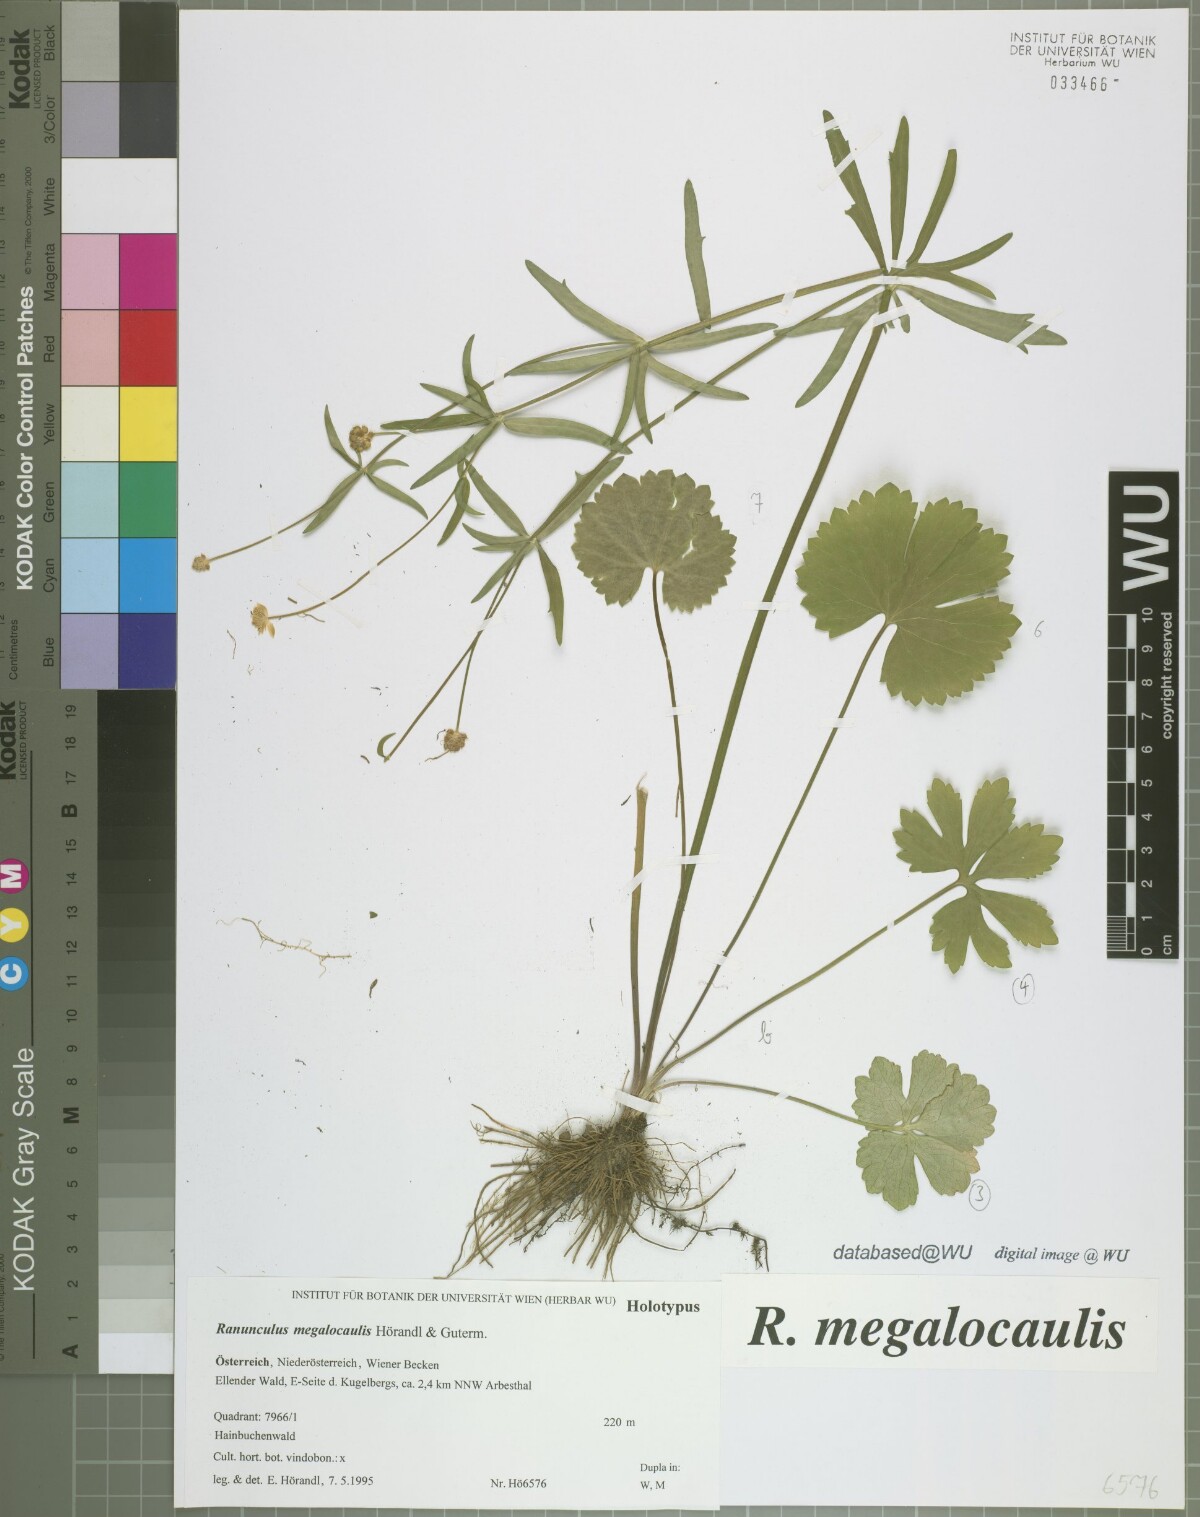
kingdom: Plantae
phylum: Tracheophyta
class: Magnoliopsida
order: Ranunculales
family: Ranunculaceae
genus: Ranunculus
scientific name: Ranunculus megalocaulis
